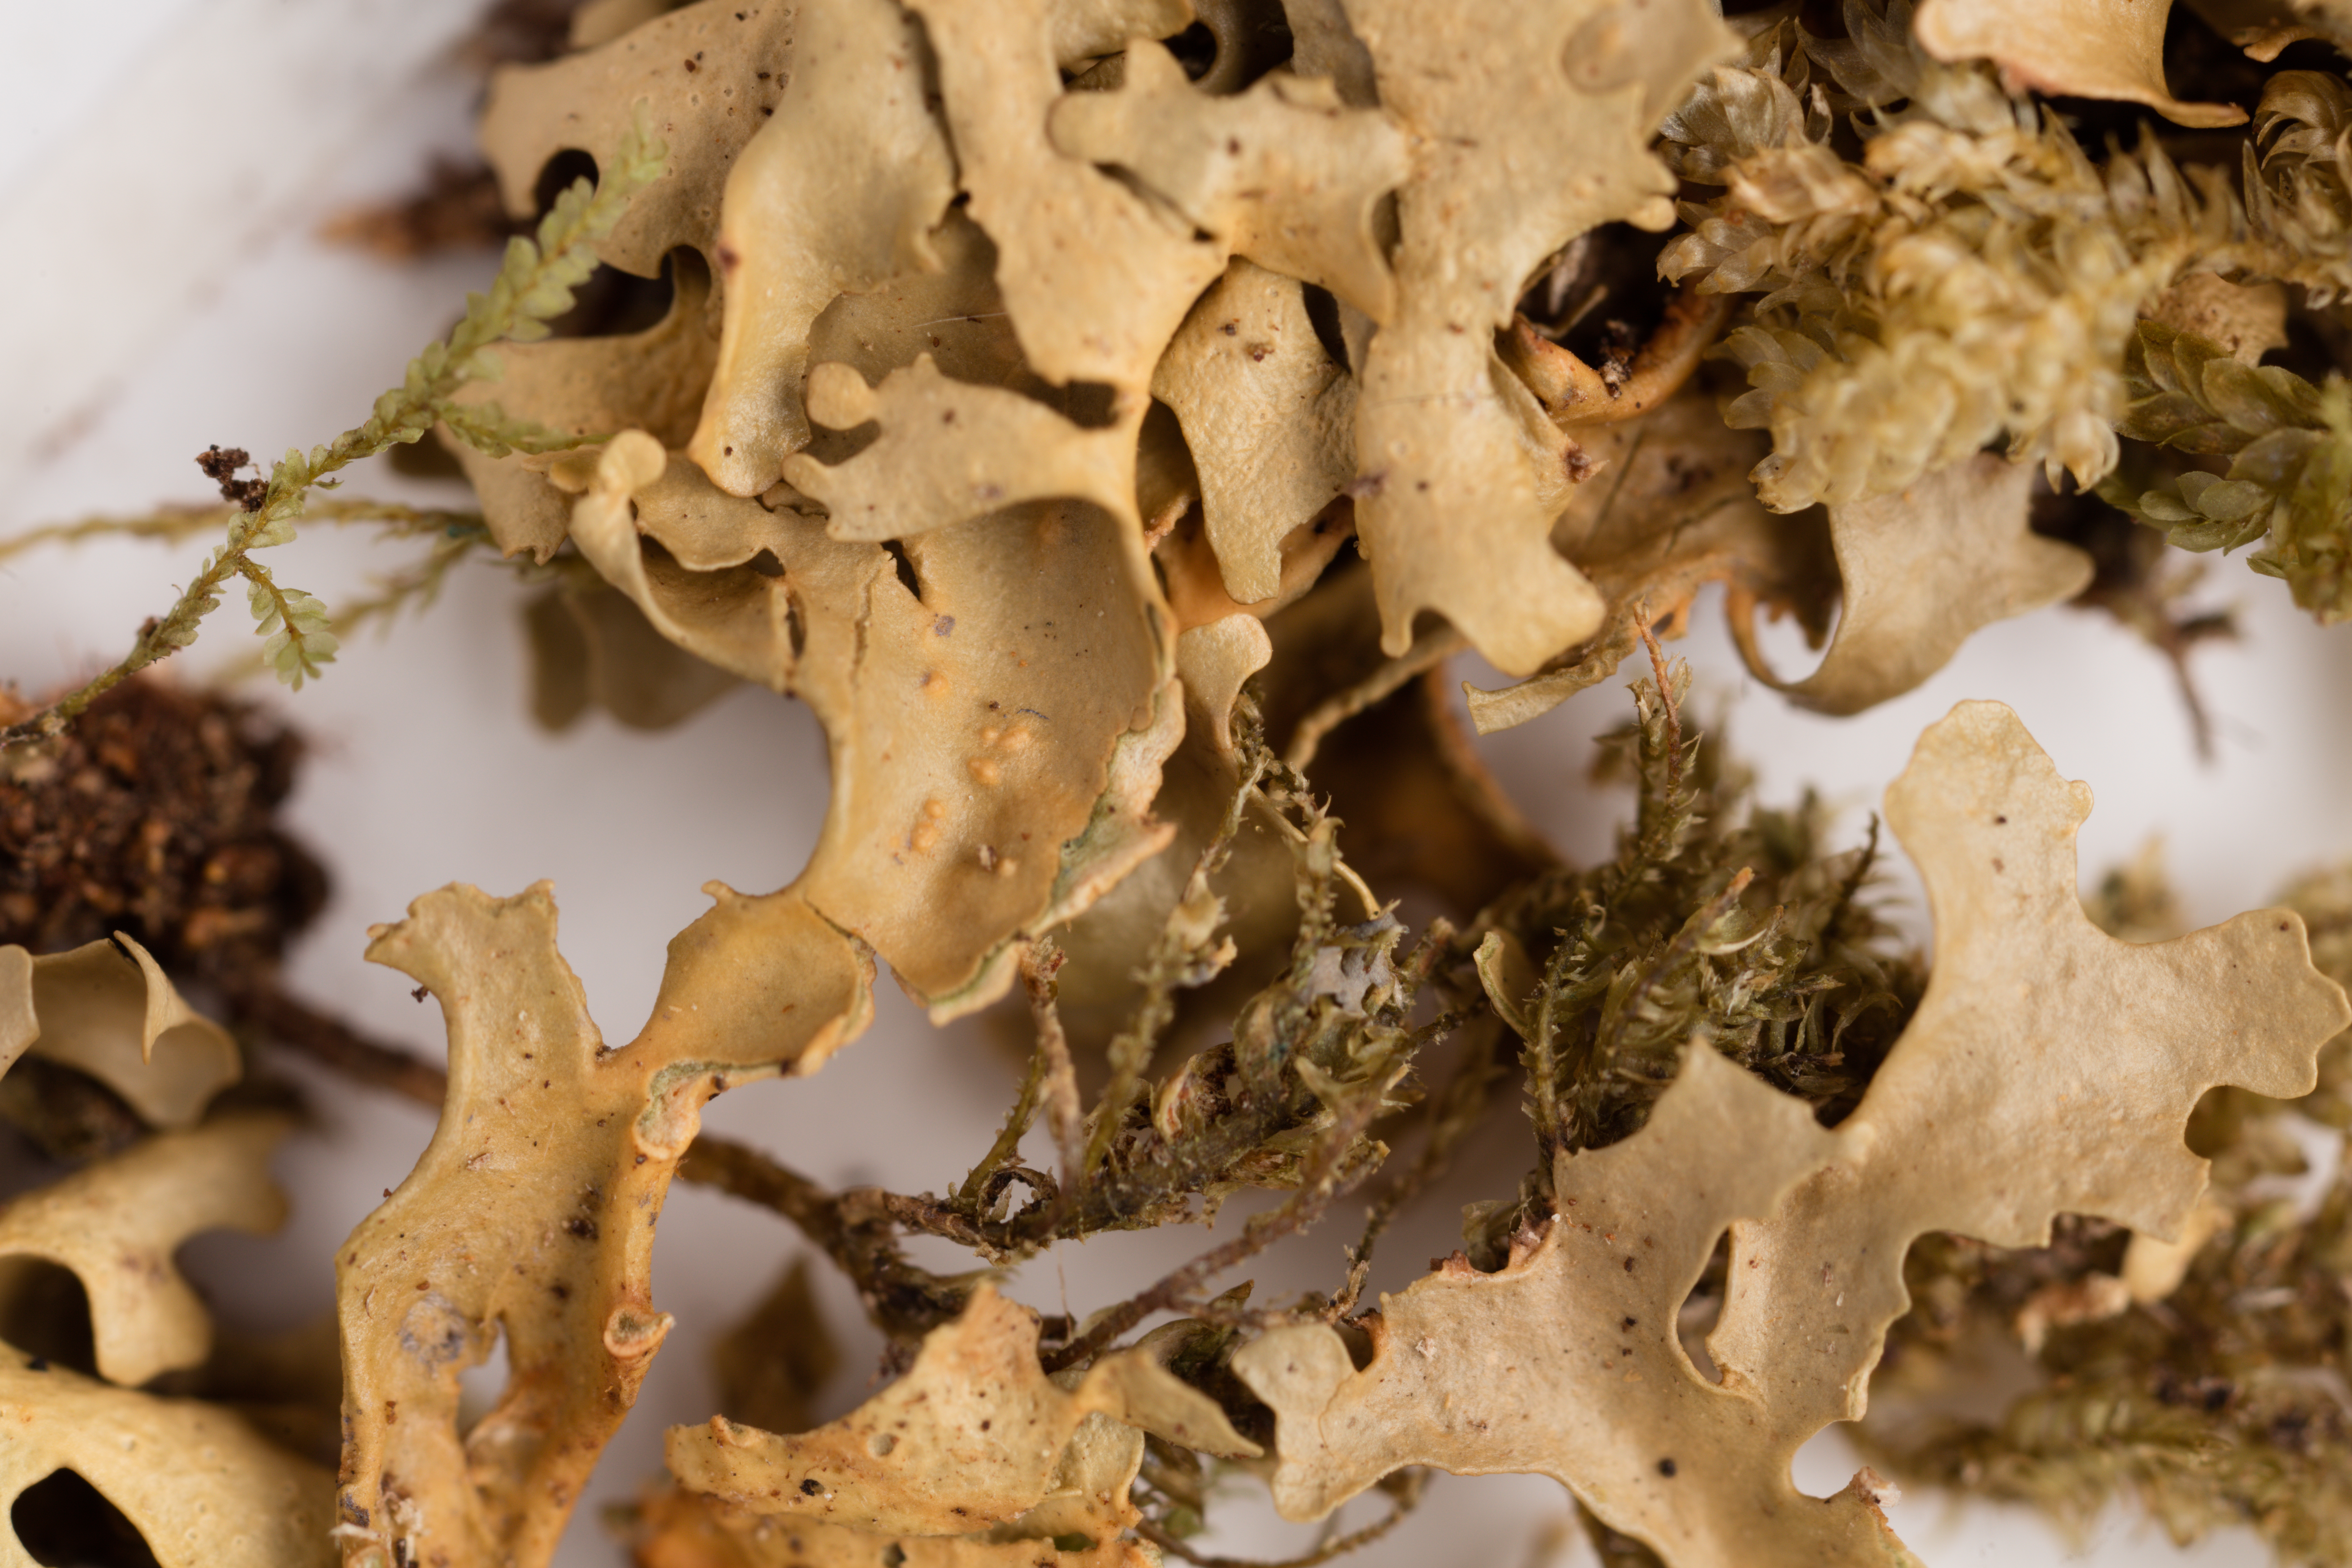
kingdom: Fungi
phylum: Ascomycota
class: Lecanoromycetes
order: Peltigerales
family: Lobariaceae
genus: Sticta
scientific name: Sticta
